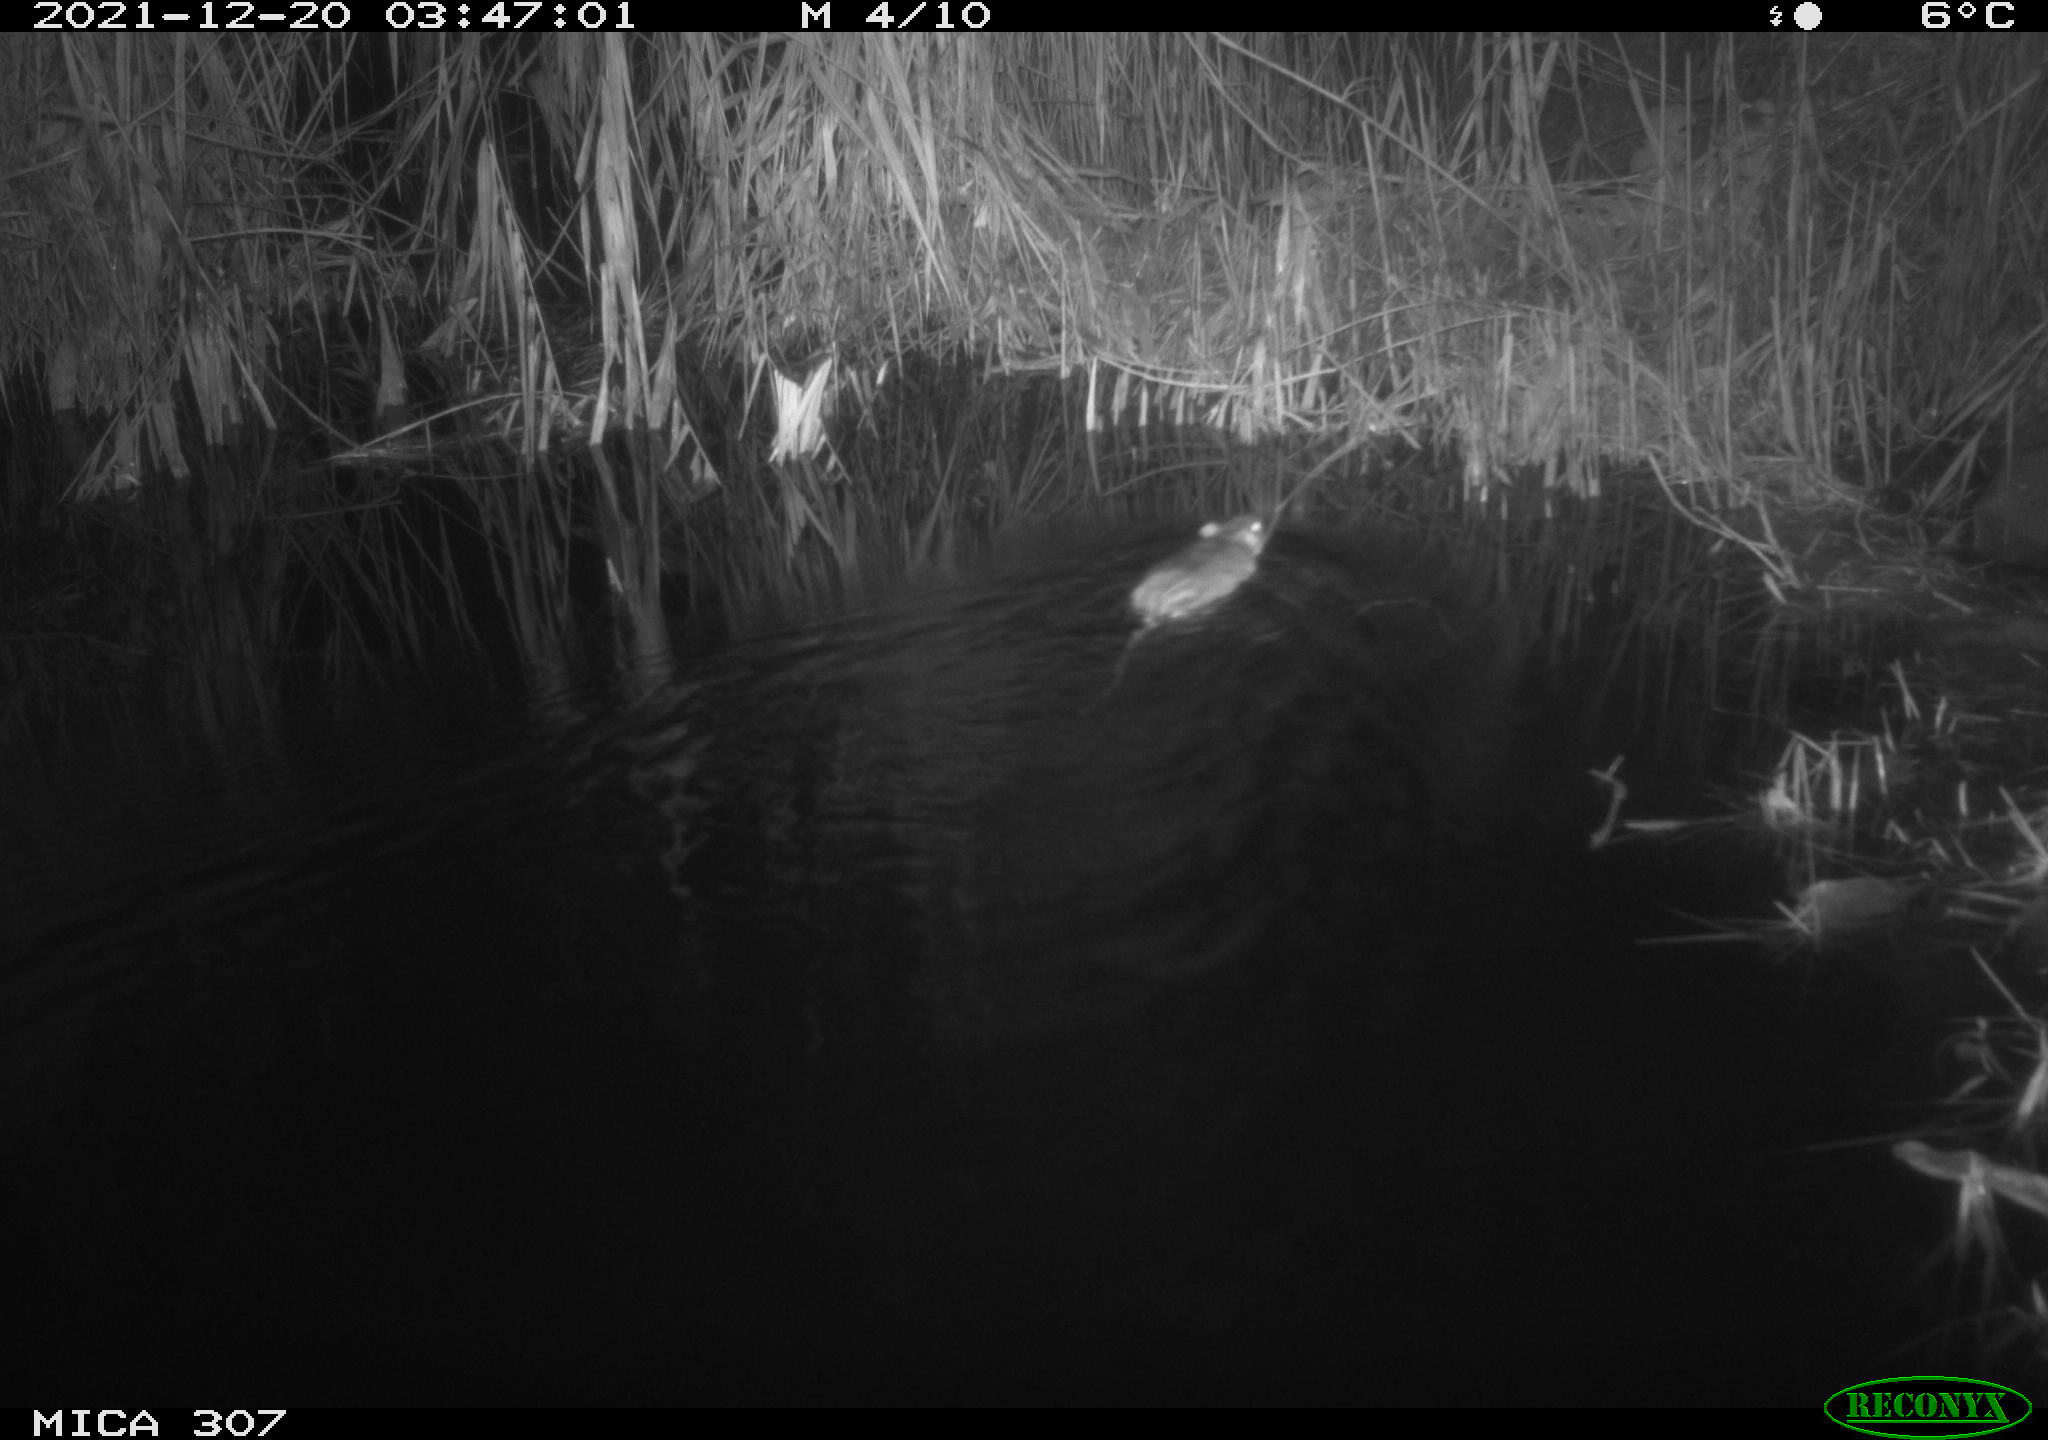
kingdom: Animalia
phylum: Chordata
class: Mammalia
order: Rodentia
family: Muridae
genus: Rattus
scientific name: Rattus norvegicus
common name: Brown rat
